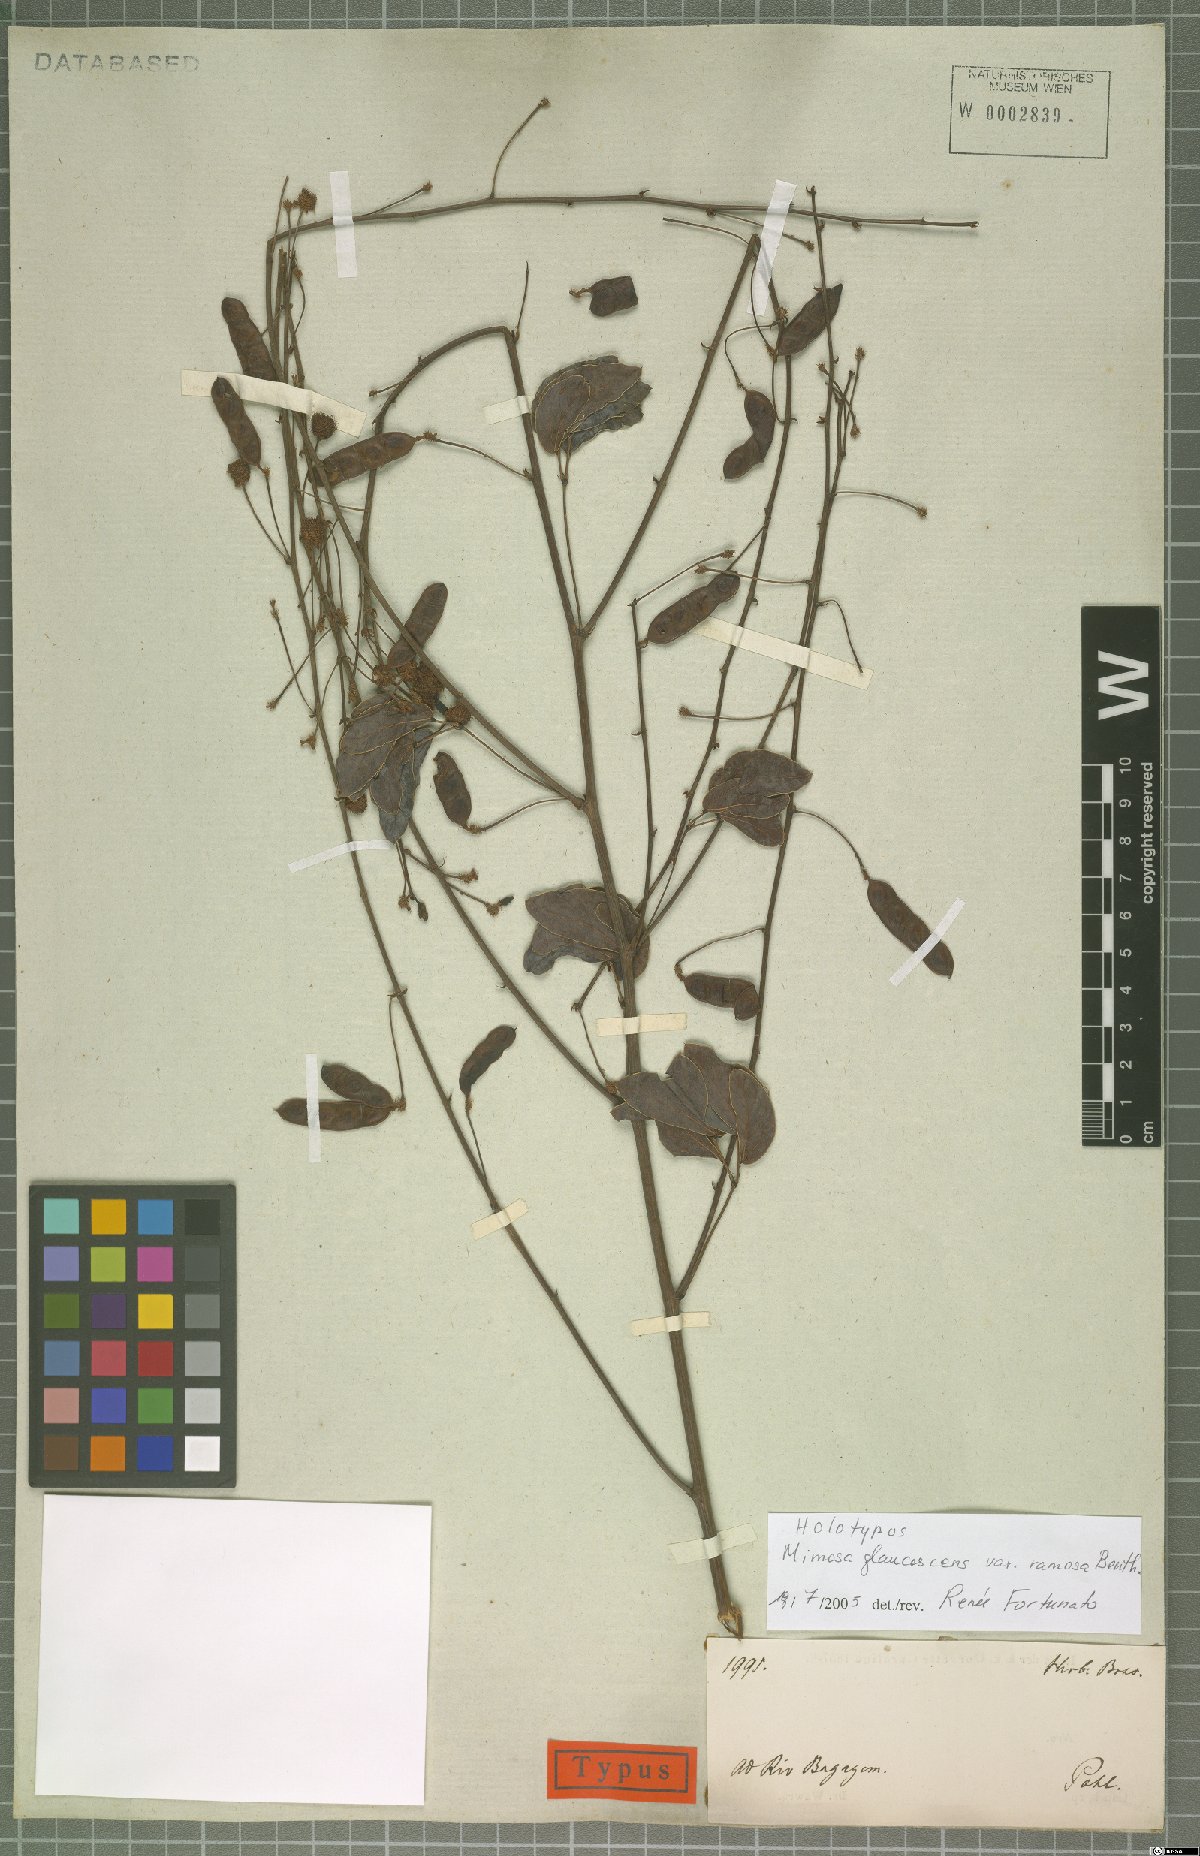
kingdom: Plantae
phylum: Tracheophyta
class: Magnoliopsida
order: Fabales
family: Fabaceae
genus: Mimosa
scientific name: Mimosa debilis
